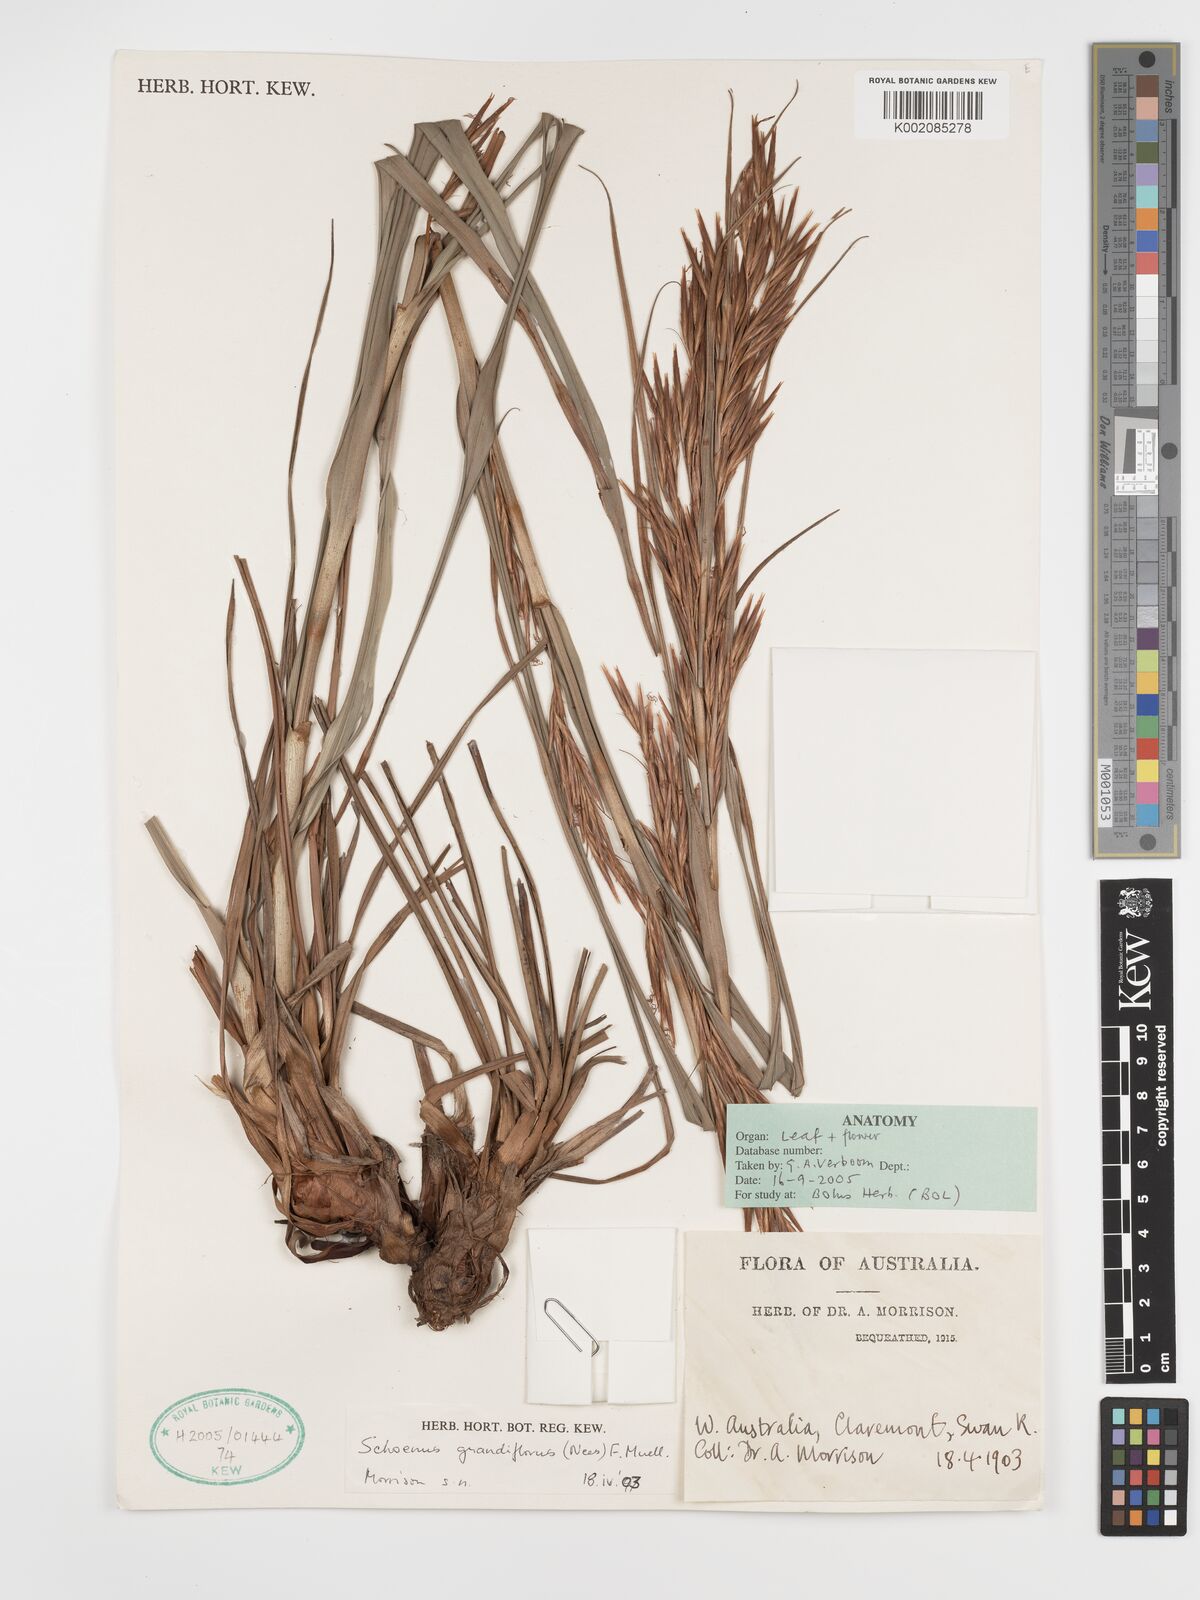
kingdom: Plantae
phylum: Tracheophyta
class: Liliopsida
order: Poales
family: Cyperaceae
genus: Schoenus
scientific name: Schoenus grandiflorus
